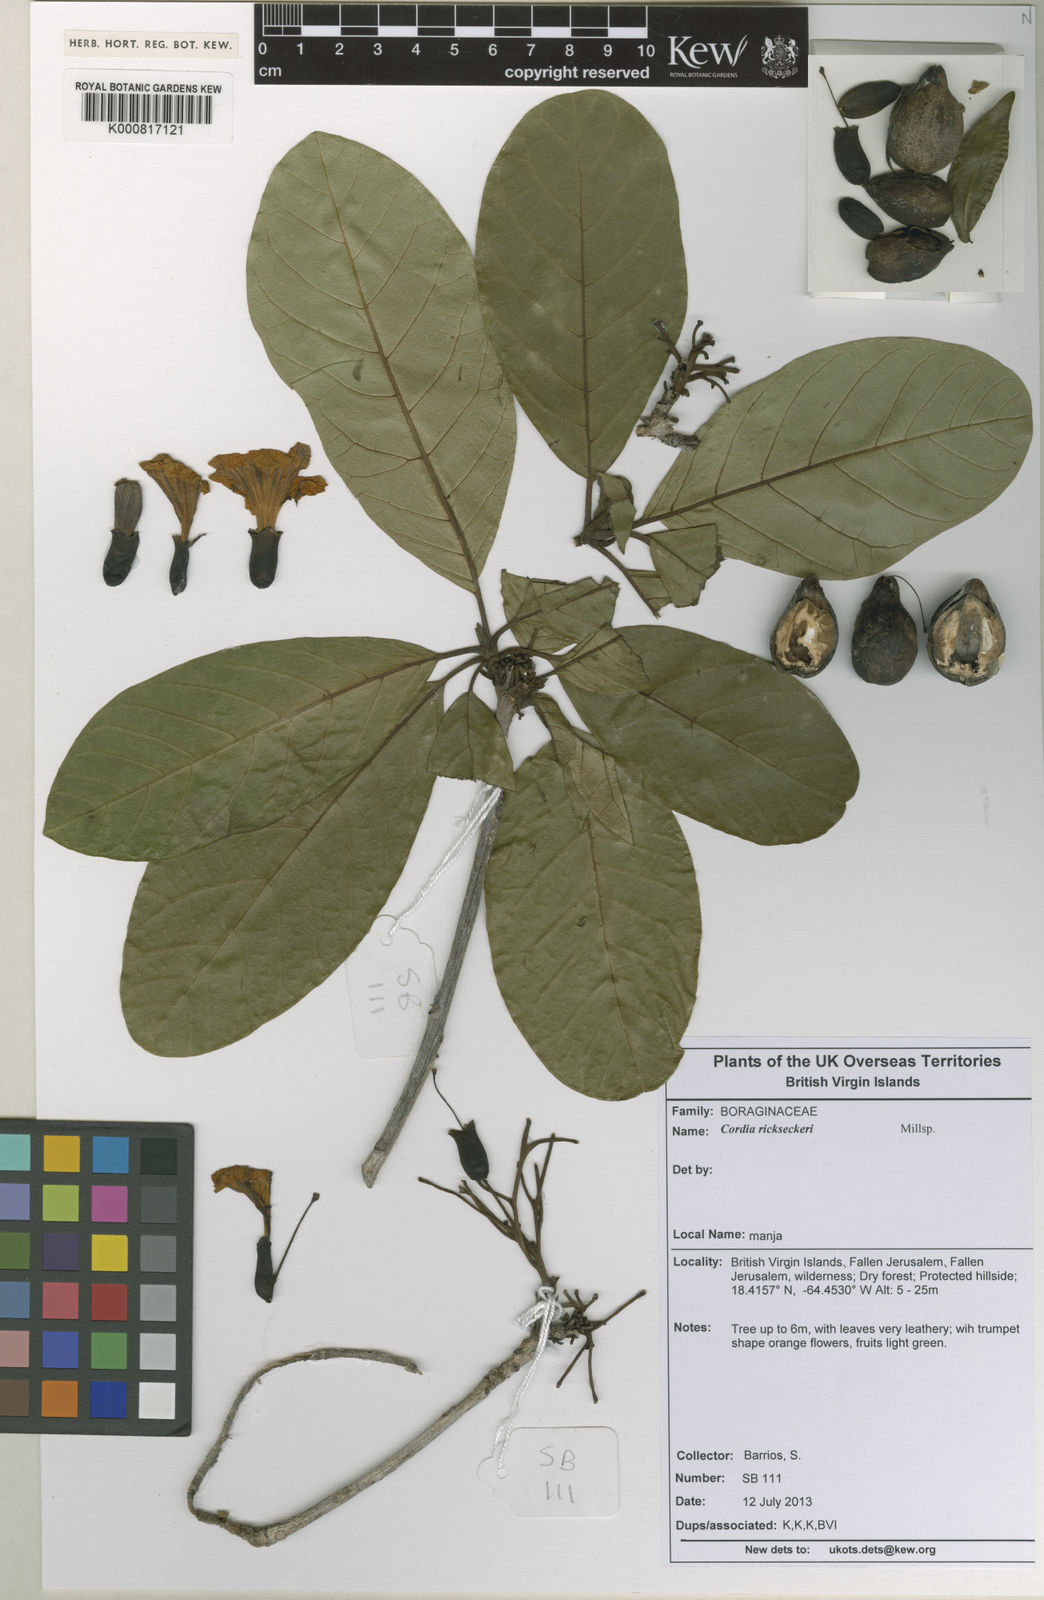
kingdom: Plantae
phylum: Tracheophyta
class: Magnoliopsida
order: Boraginales
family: Cordiaceae
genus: Cordia
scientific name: Cordia rickseckeri
